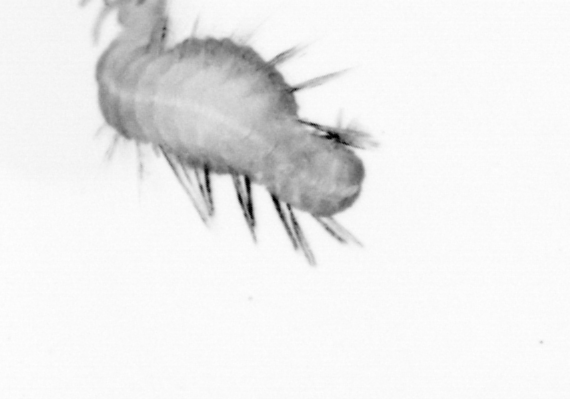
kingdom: Animalia
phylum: Annelida
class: Polychaeta
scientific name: Polychaeta
